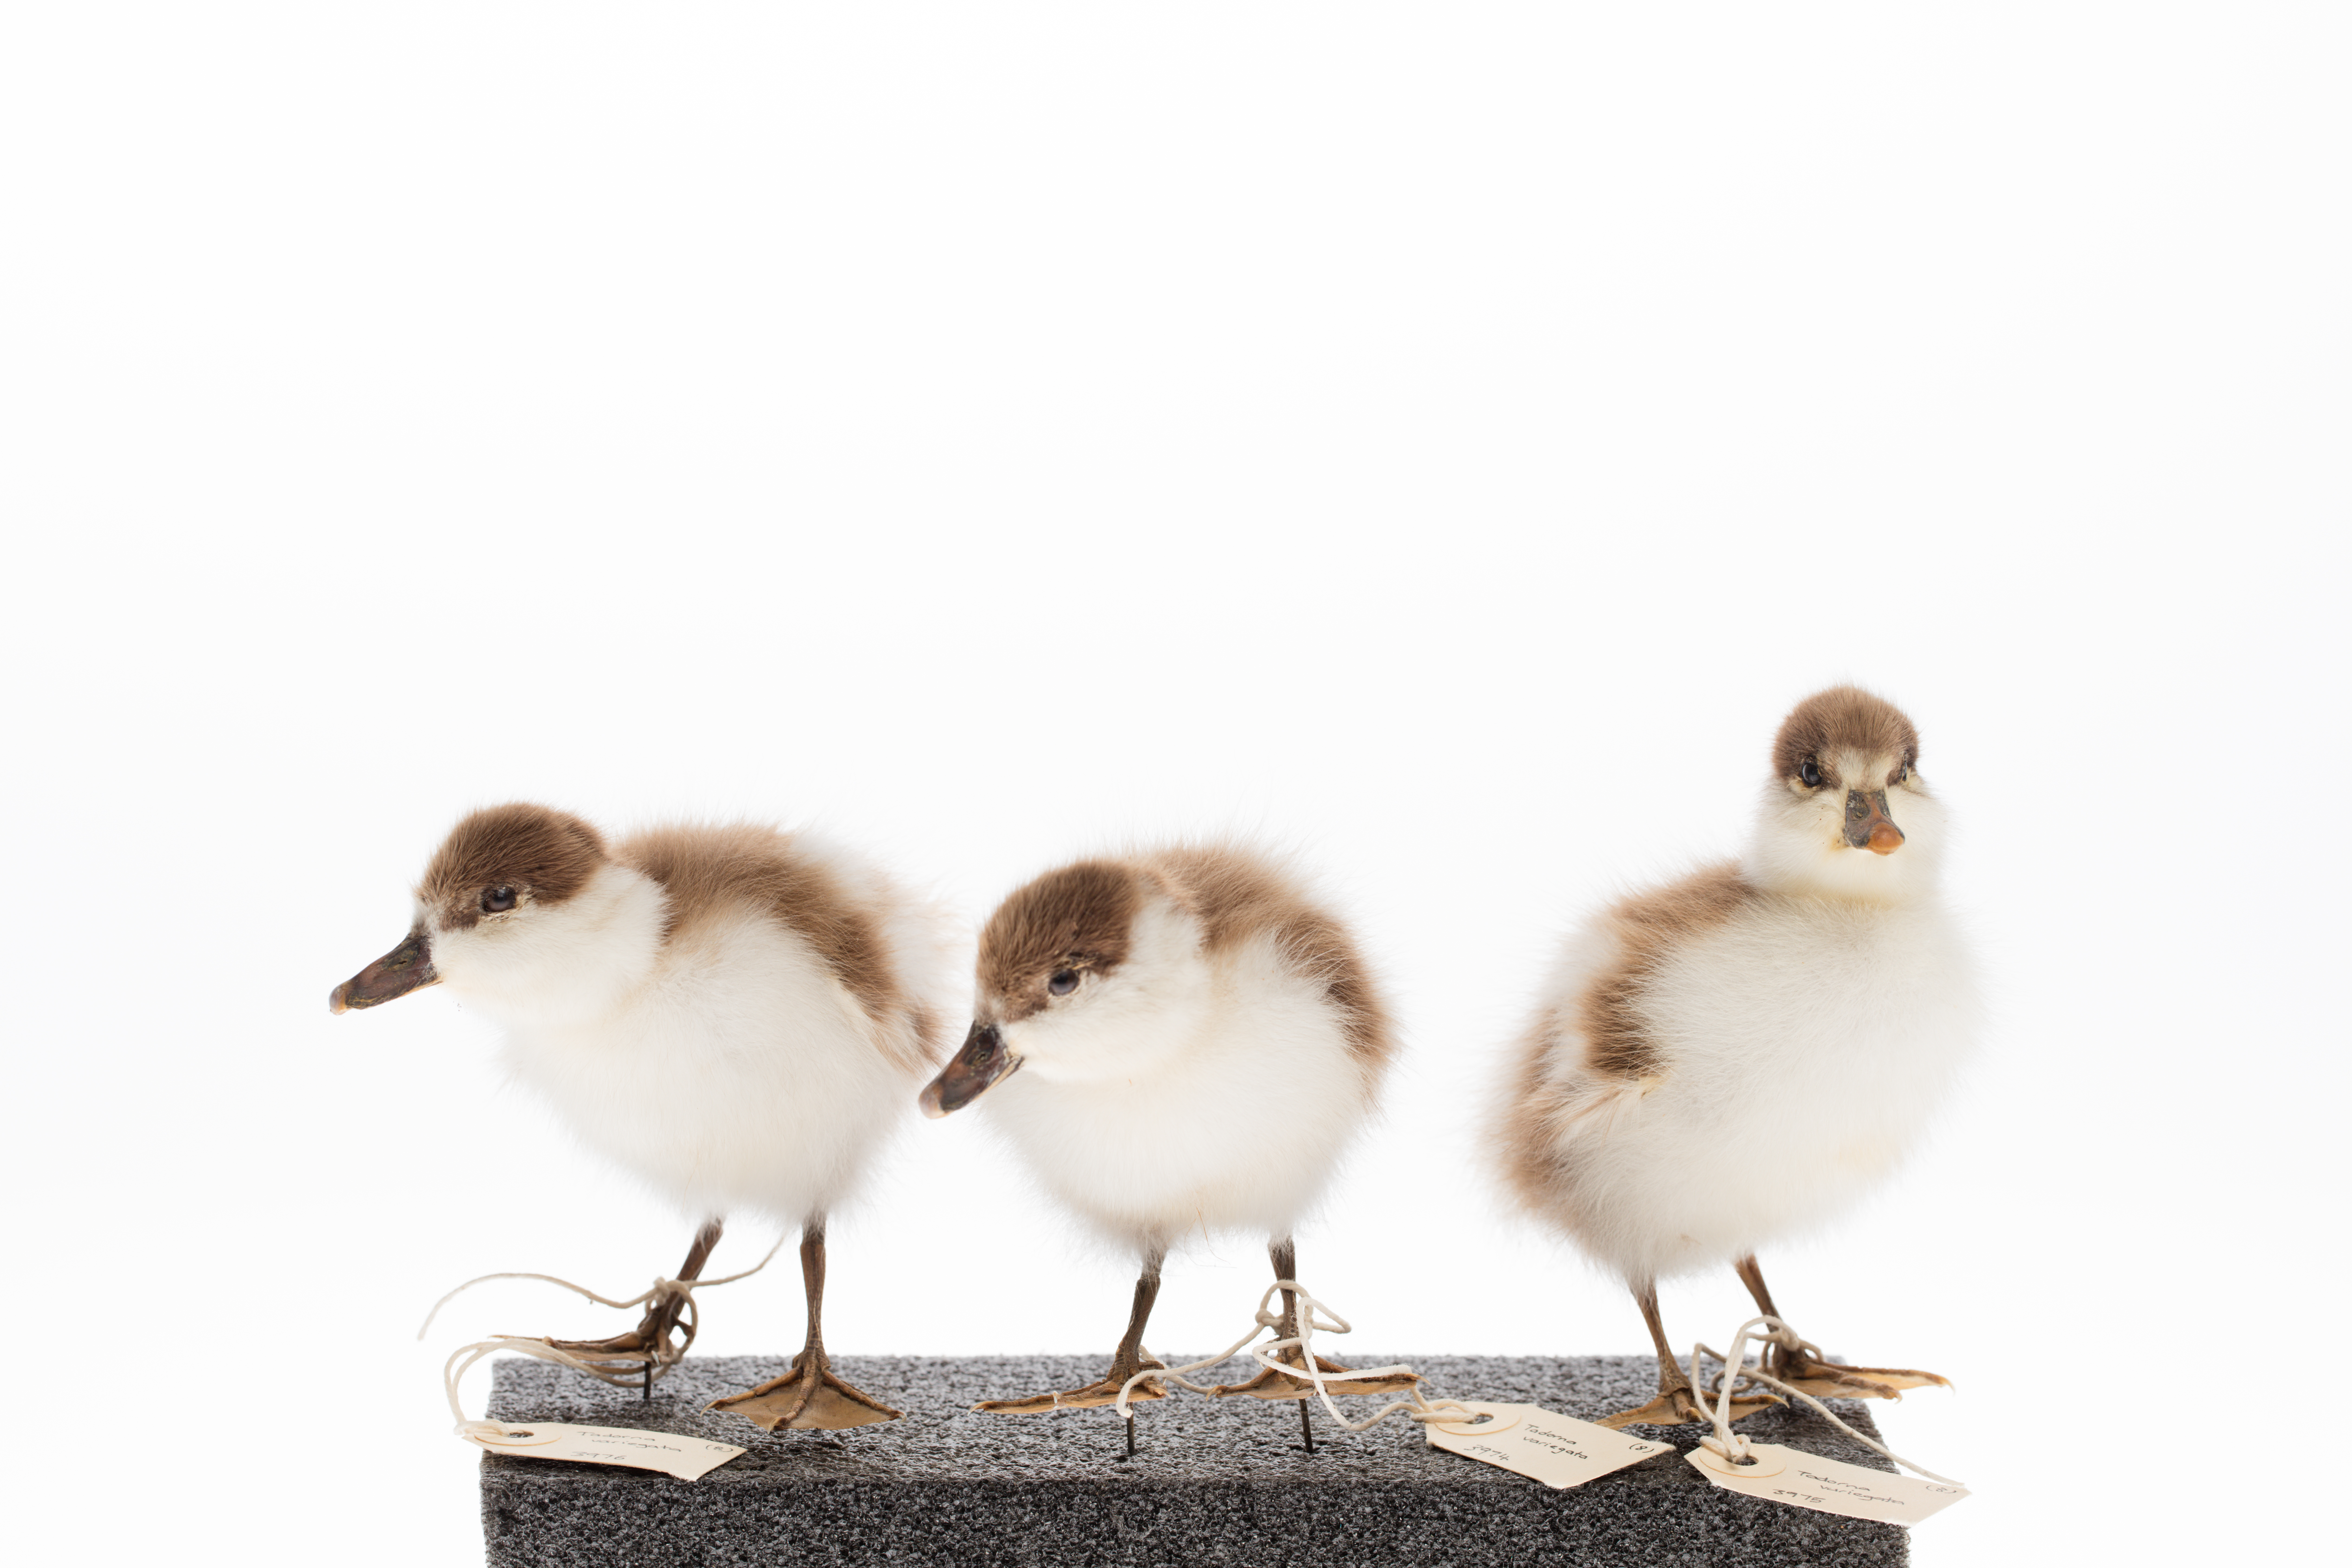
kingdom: Animalia
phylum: Chordata
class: Aves
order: Anseriformes
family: Anatidae
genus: Tadorna
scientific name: Tadorna variegata
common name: Paradise shelduck
